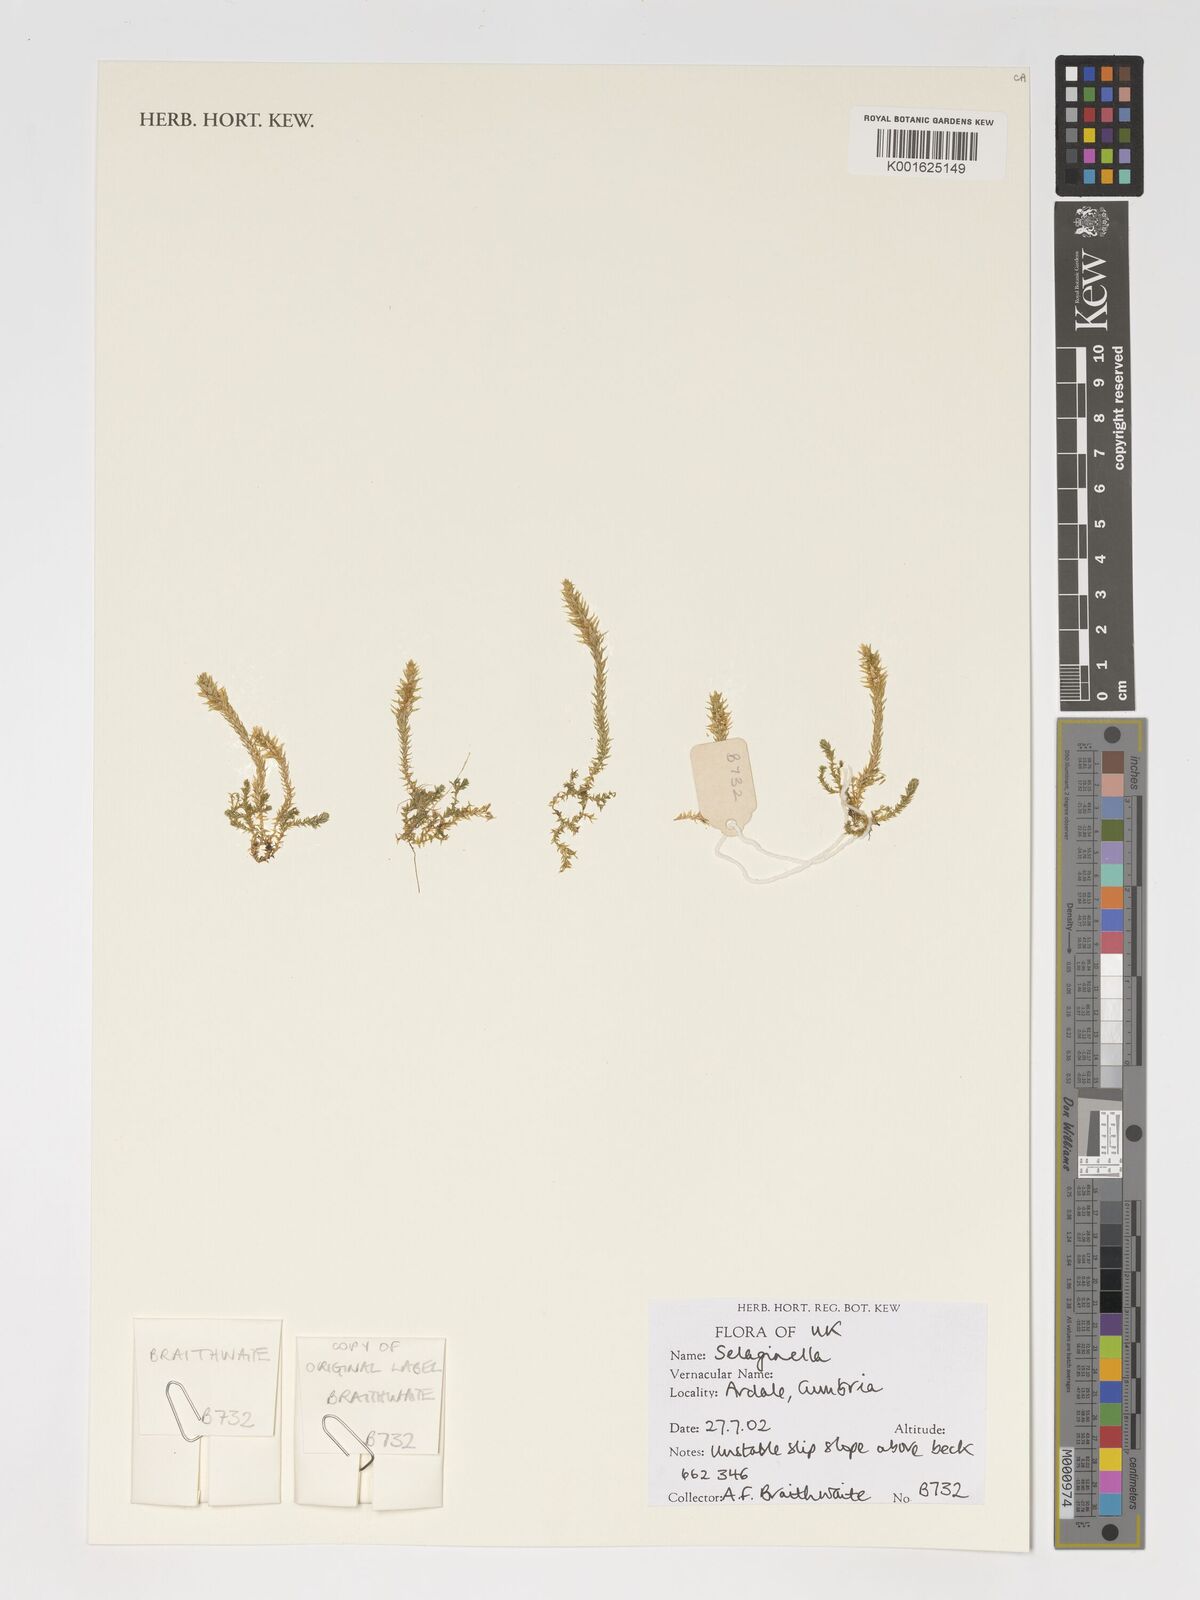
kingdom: Plantae
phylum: Tracheophyta
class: Lycopodiopsida
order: Selaginellales
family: Selaginellaceae
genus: Selaginella
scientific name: Selaginella
